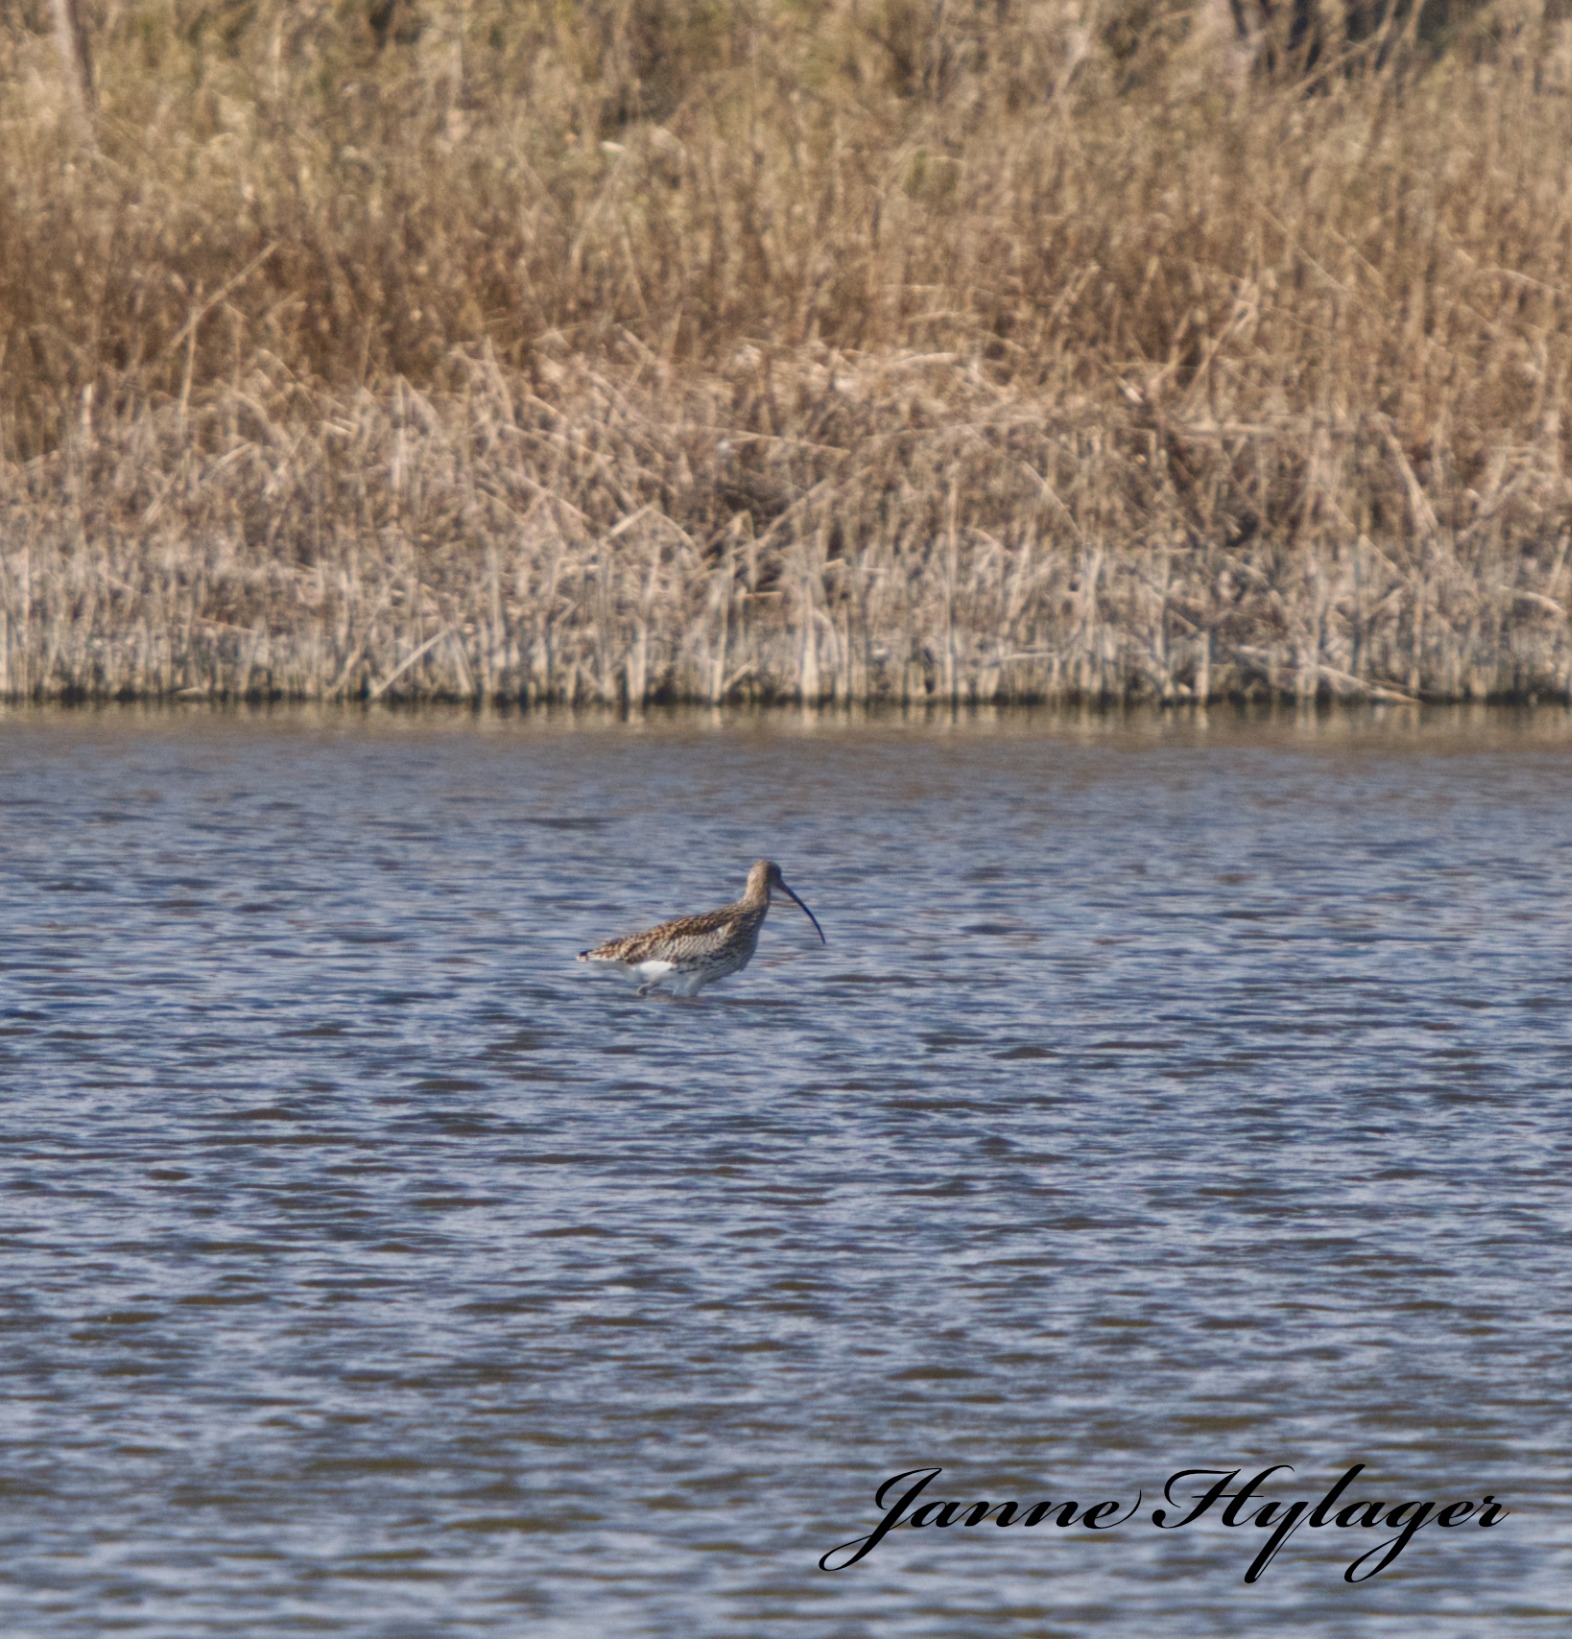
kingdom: Animalia
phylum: Chordata
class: Aves
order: Charadriiformes
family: Scolopacidae
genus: Numenius
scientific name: Numenius arquata
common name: Storspove
